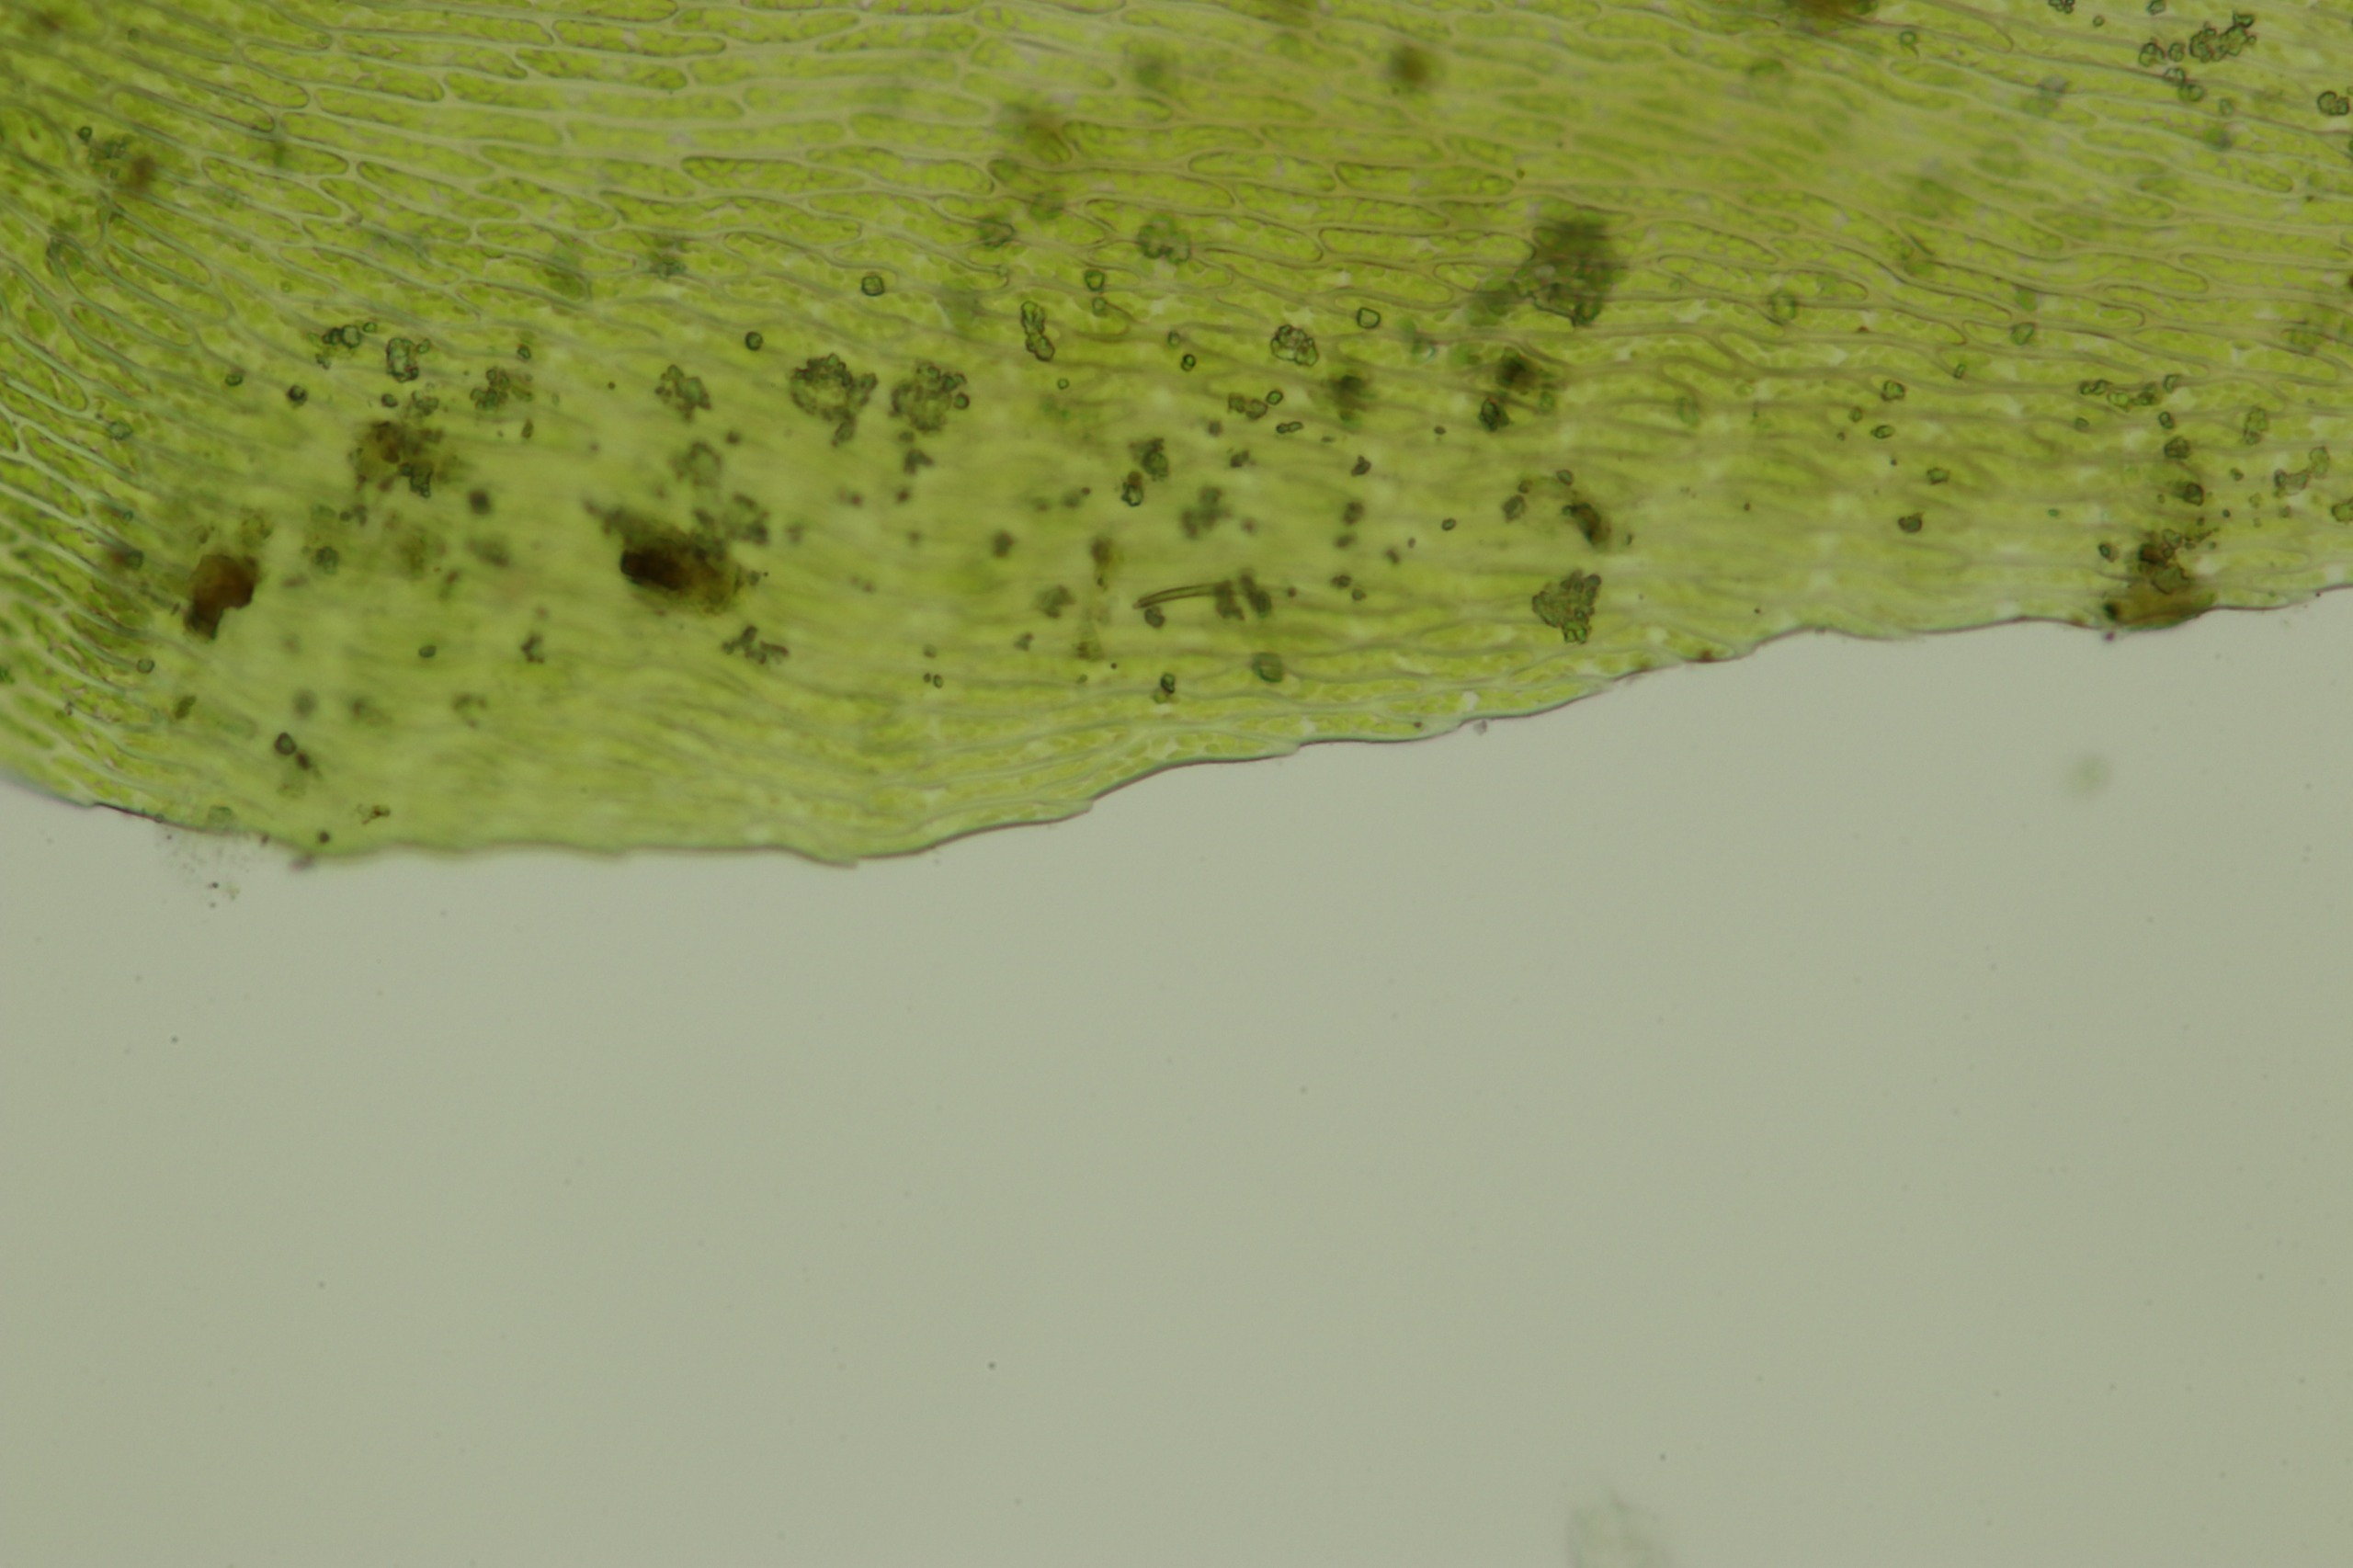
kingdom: Plantae
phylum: Bryophyta
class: Bryopsida
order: Hypnales
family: Amblystegiaceae
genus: Drepanocladus
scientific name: Drepanocladus aduncus
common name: Kær-seglmos
